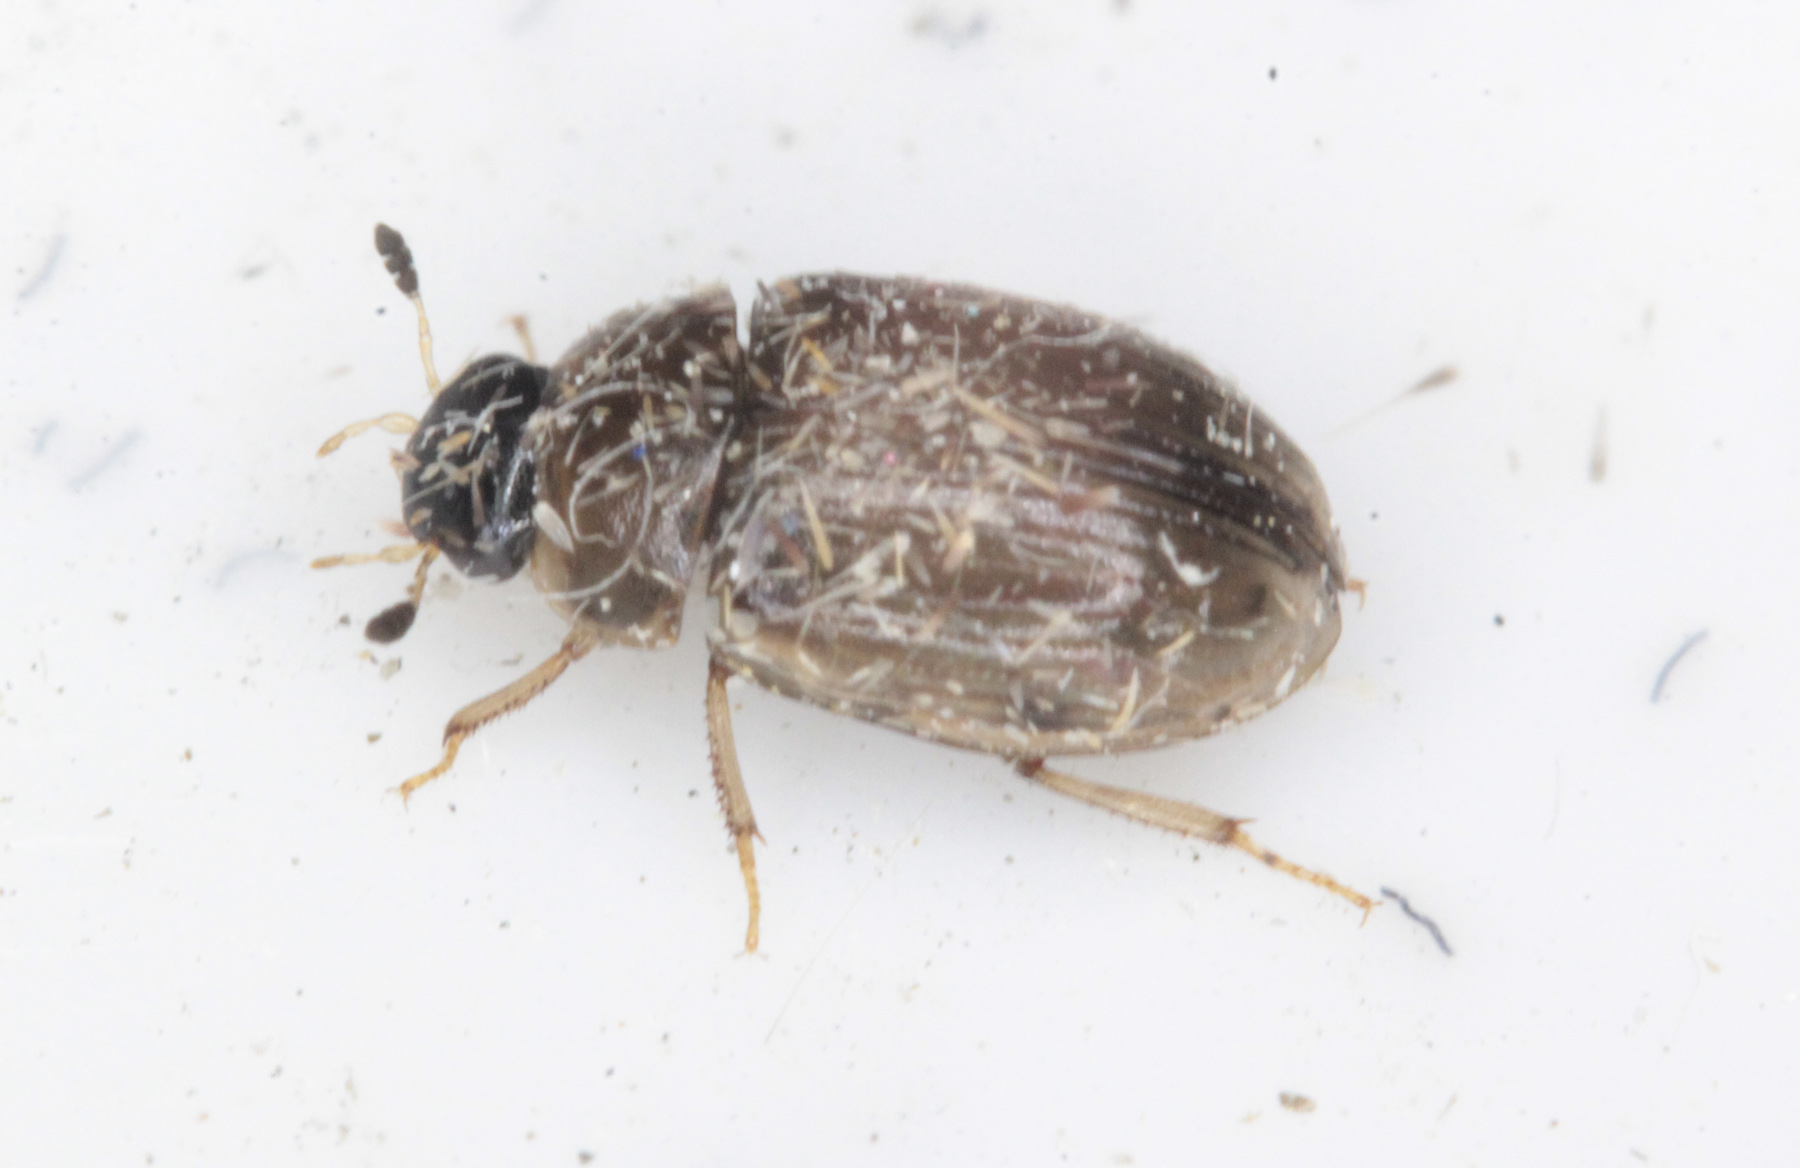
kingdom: Animalia
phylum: Arthropoda
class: Insecta
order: Coleoptera
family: Hydrophilidae
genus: Cercyon
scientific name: Cercyon laminatus
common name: Water scavenger beetle
